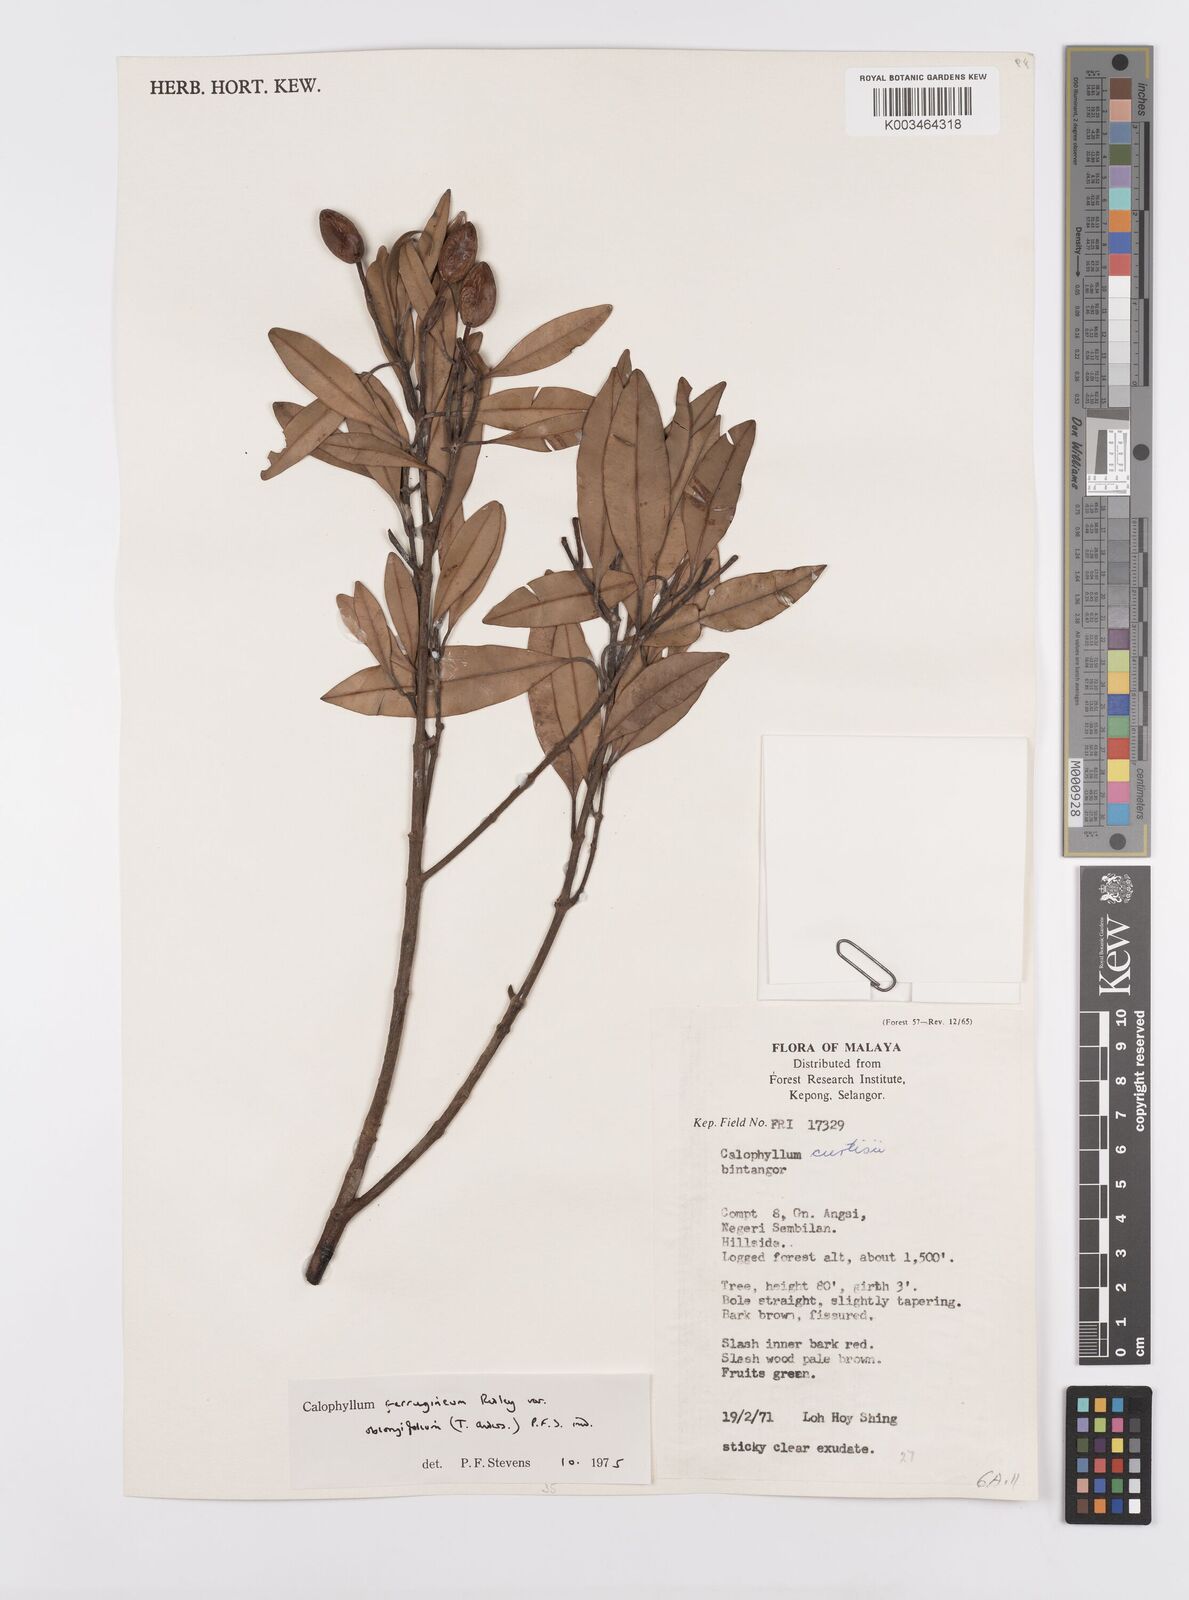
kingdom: Plantae
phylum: Tracheophyta
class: Magnoliopsida
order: Malpighiales
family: Calophyllaceae
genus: Calophyllum
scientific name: Calophyllum ferrugineum
